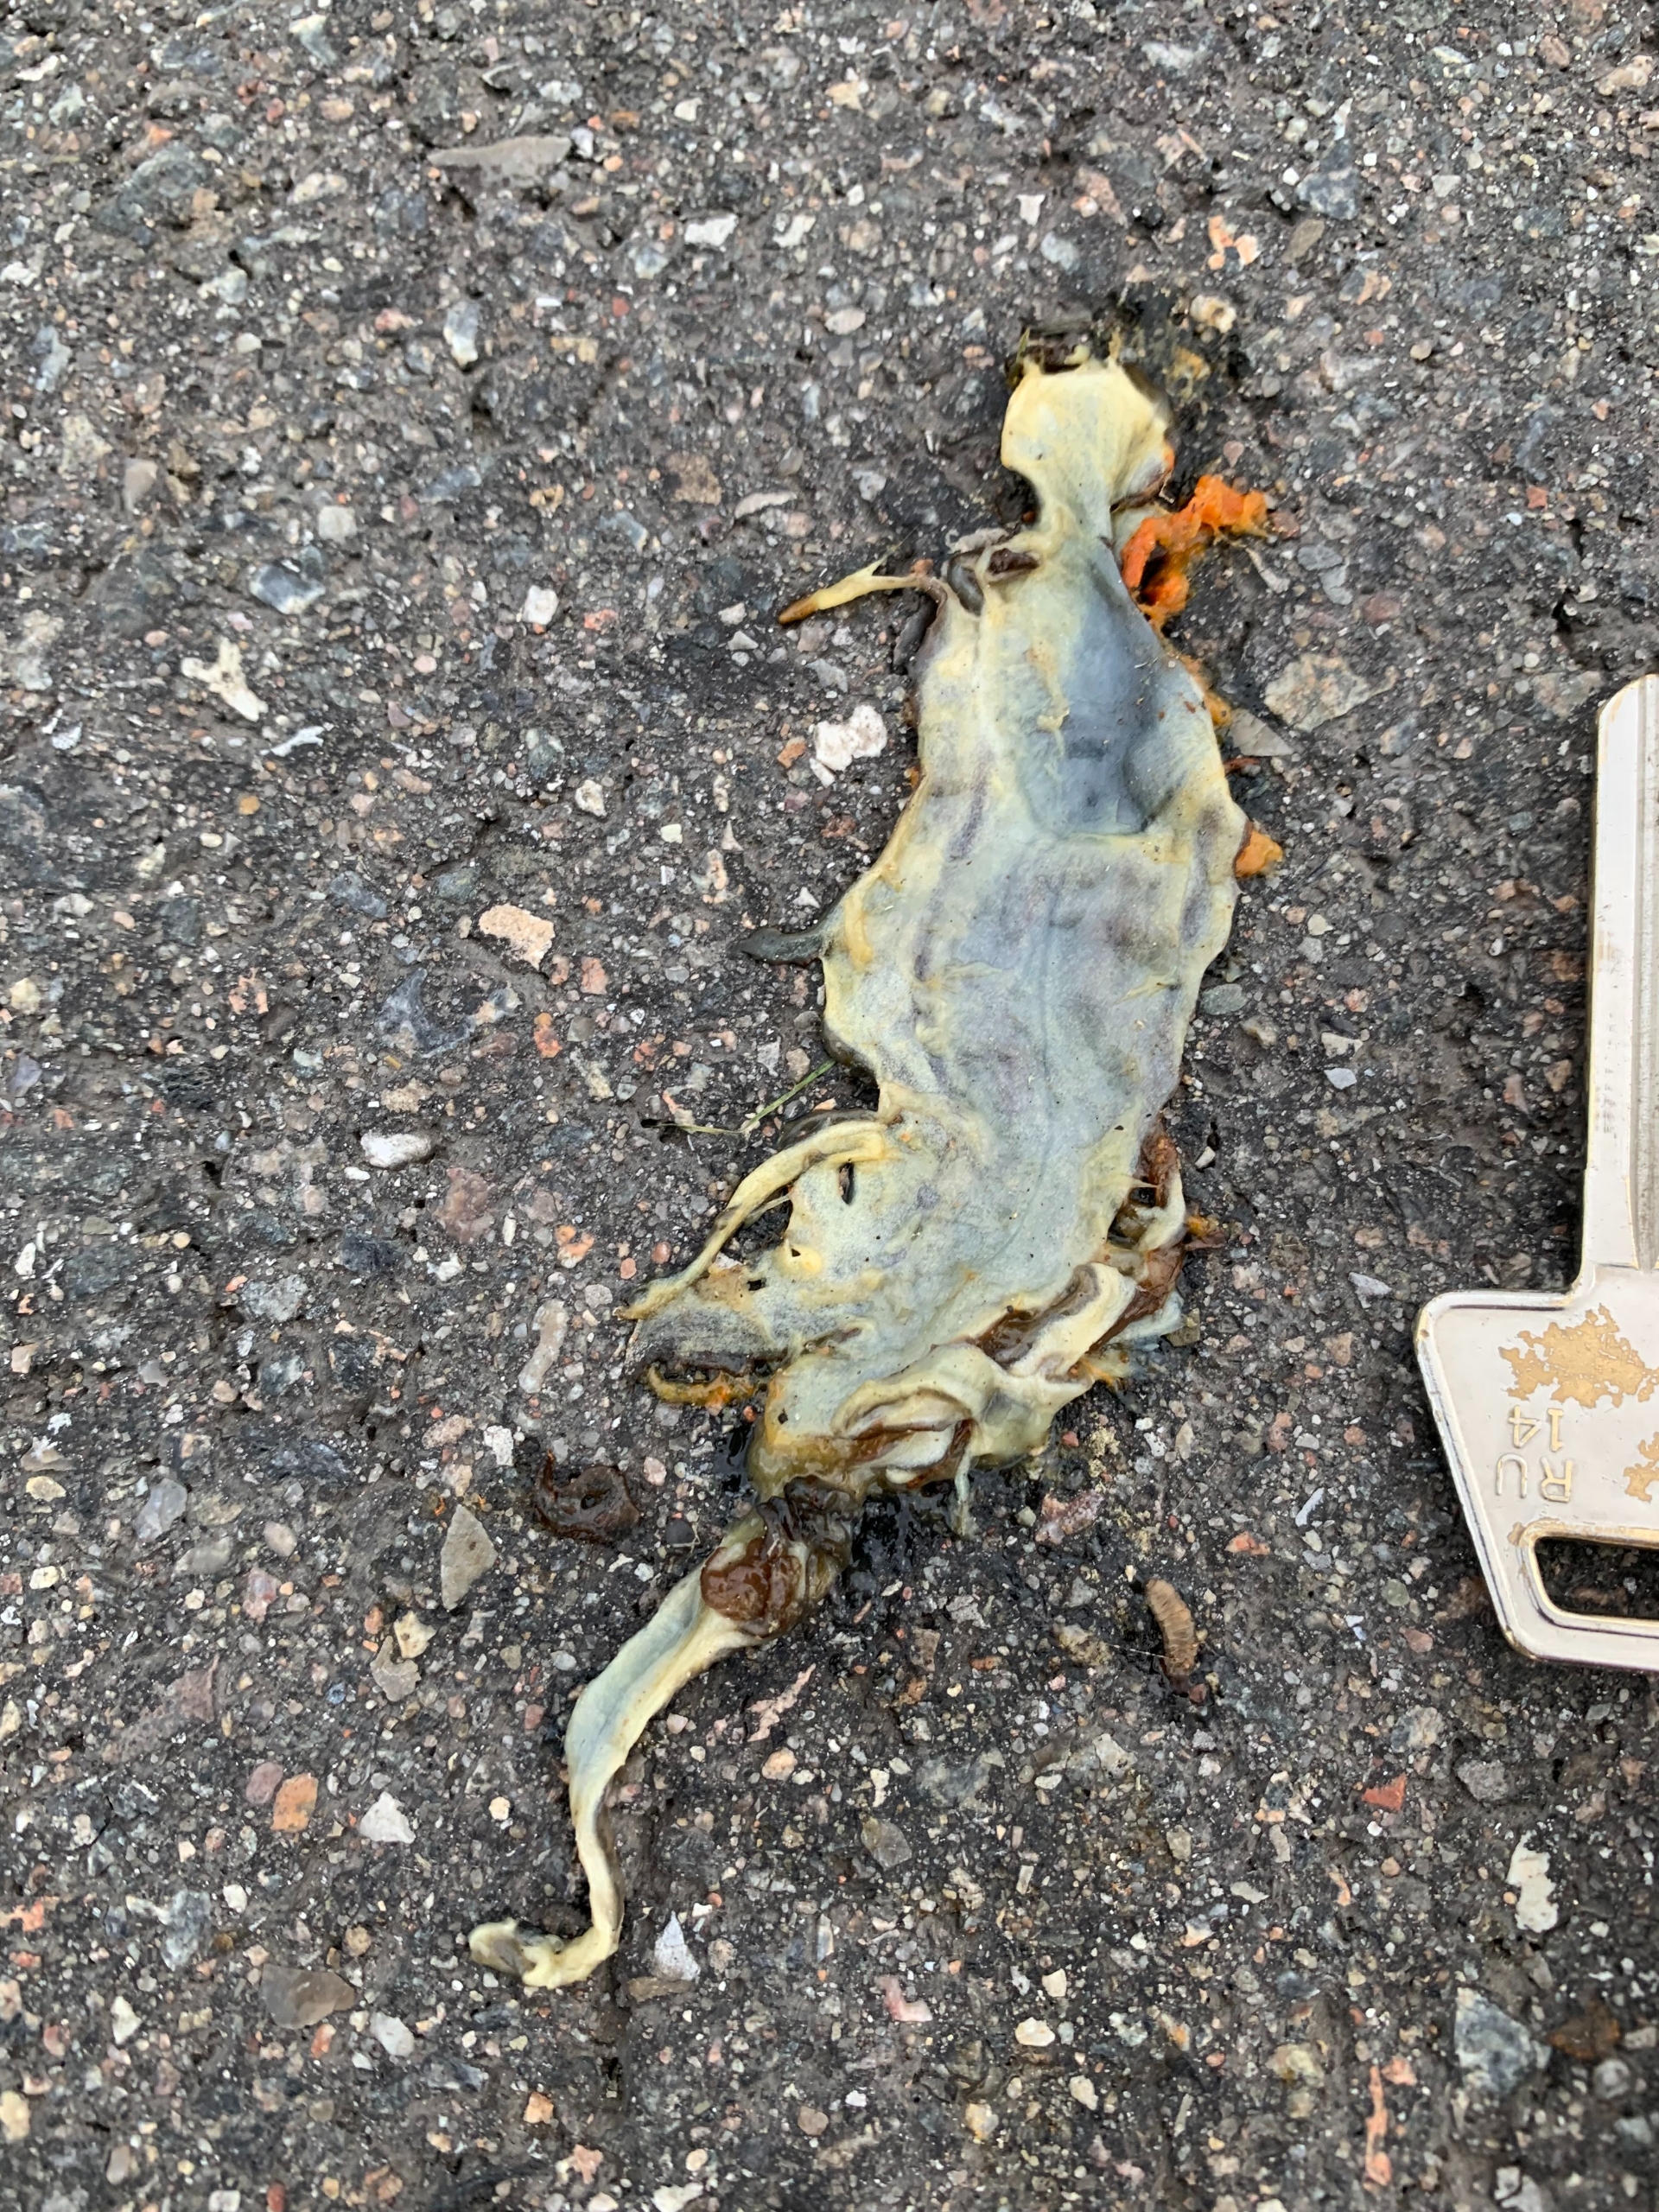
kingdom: Animalia
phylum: Chordata
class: Amphibia
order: Caudata
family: Salamandridae
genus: Triturus
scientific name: Triturus cristatus
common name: Stor vandsalamander
